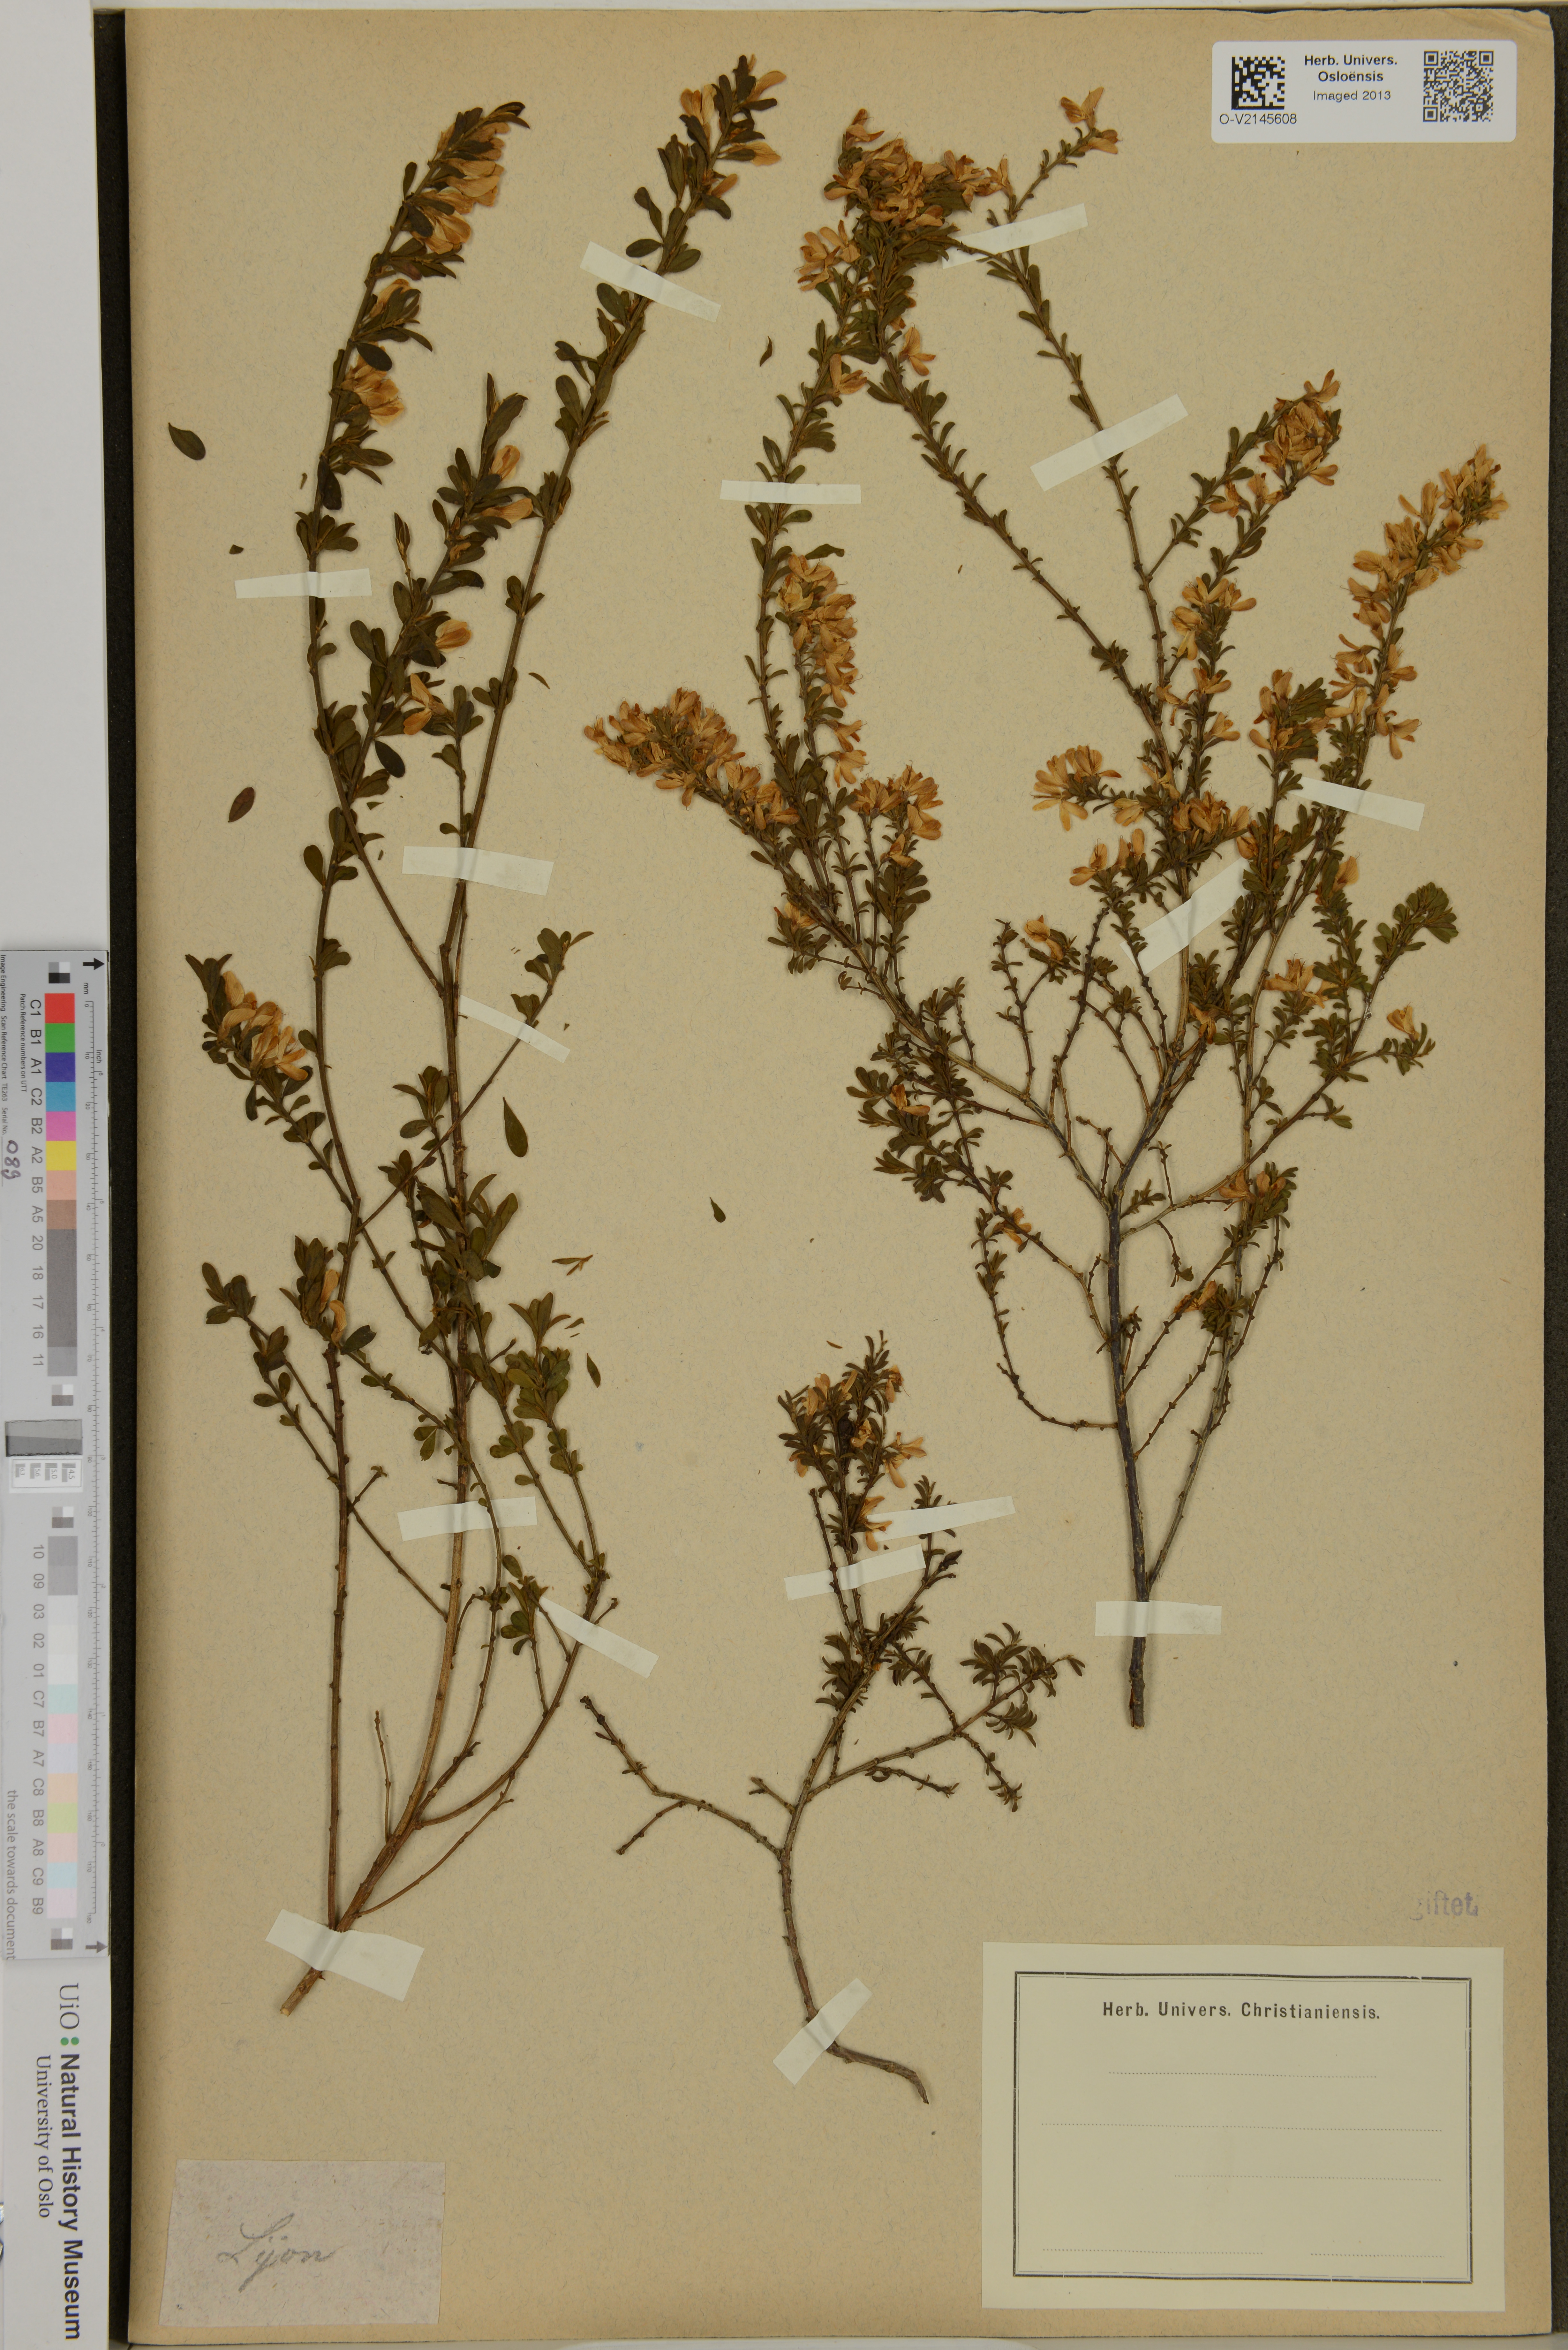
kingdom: Plantae
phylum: Tracheophyta
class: Magnoliopsida
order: Fabales
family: Fabaceae
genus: Genista
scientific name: Genista
